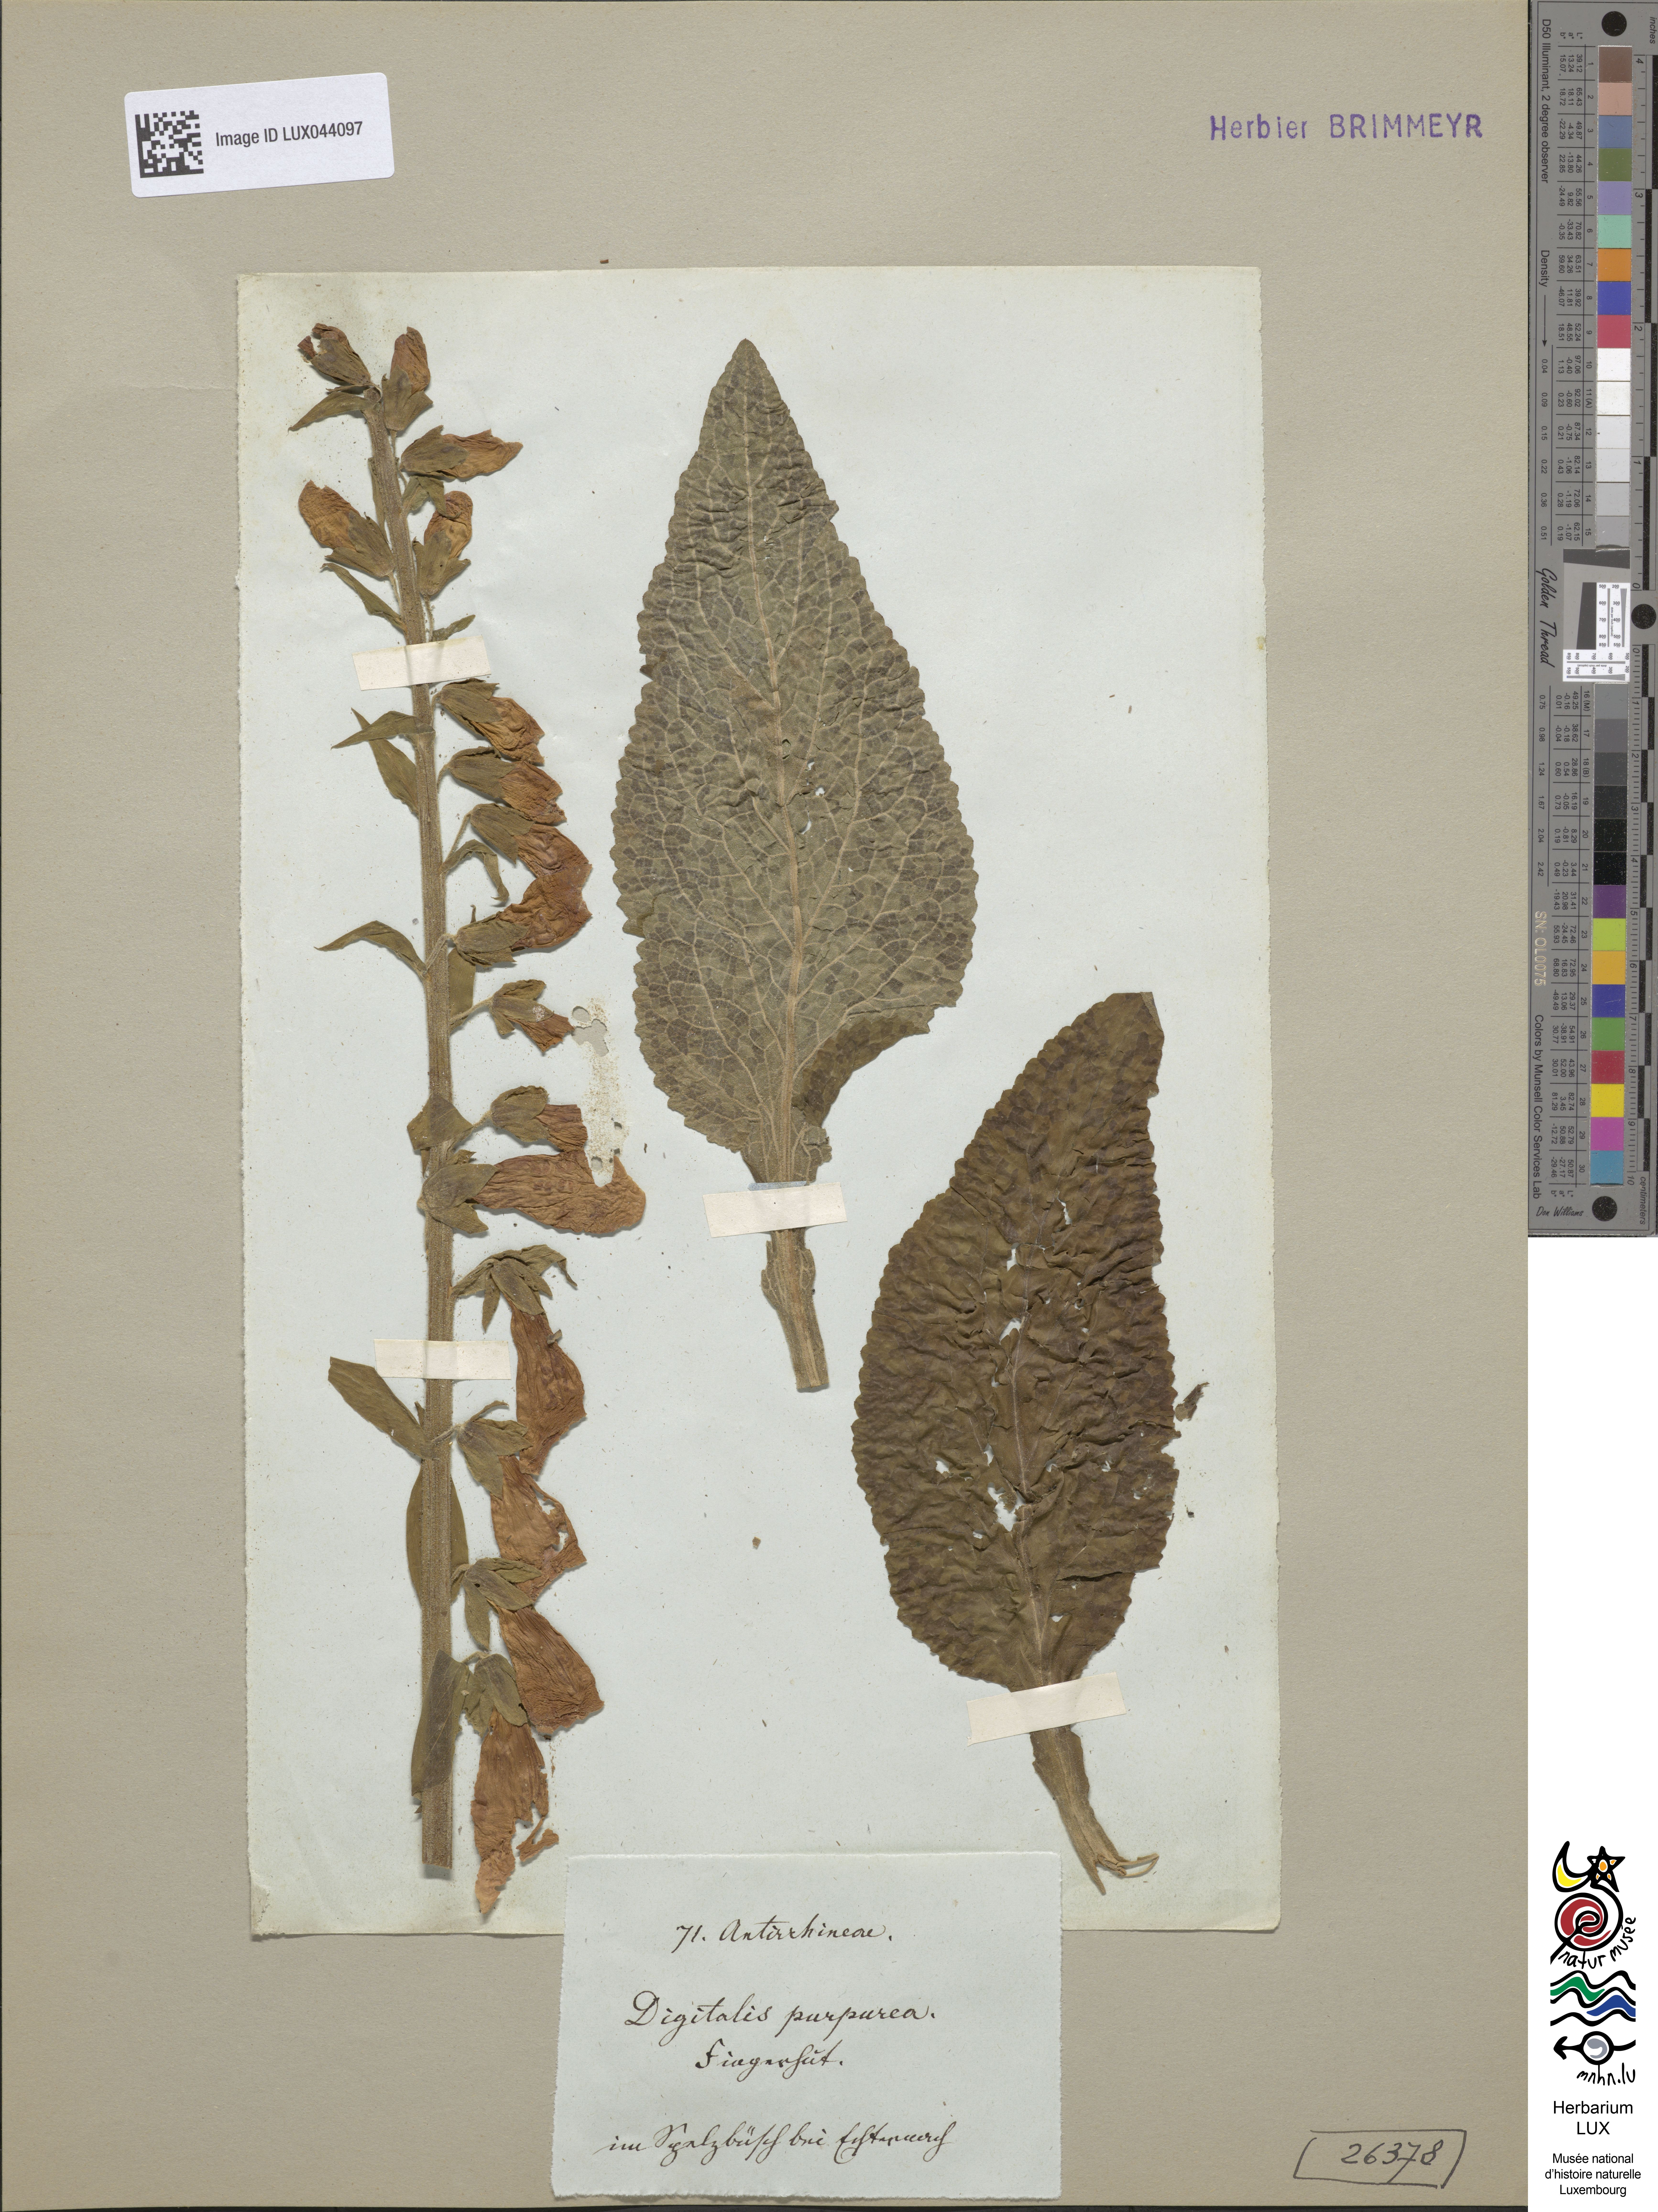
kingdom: Plantae
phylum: Tracheophyta
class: Magnoliopsida
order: Lamiales
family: Plantaginaceae
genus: Digitalis
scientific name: Digitalis purpurea
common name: Foxglove
